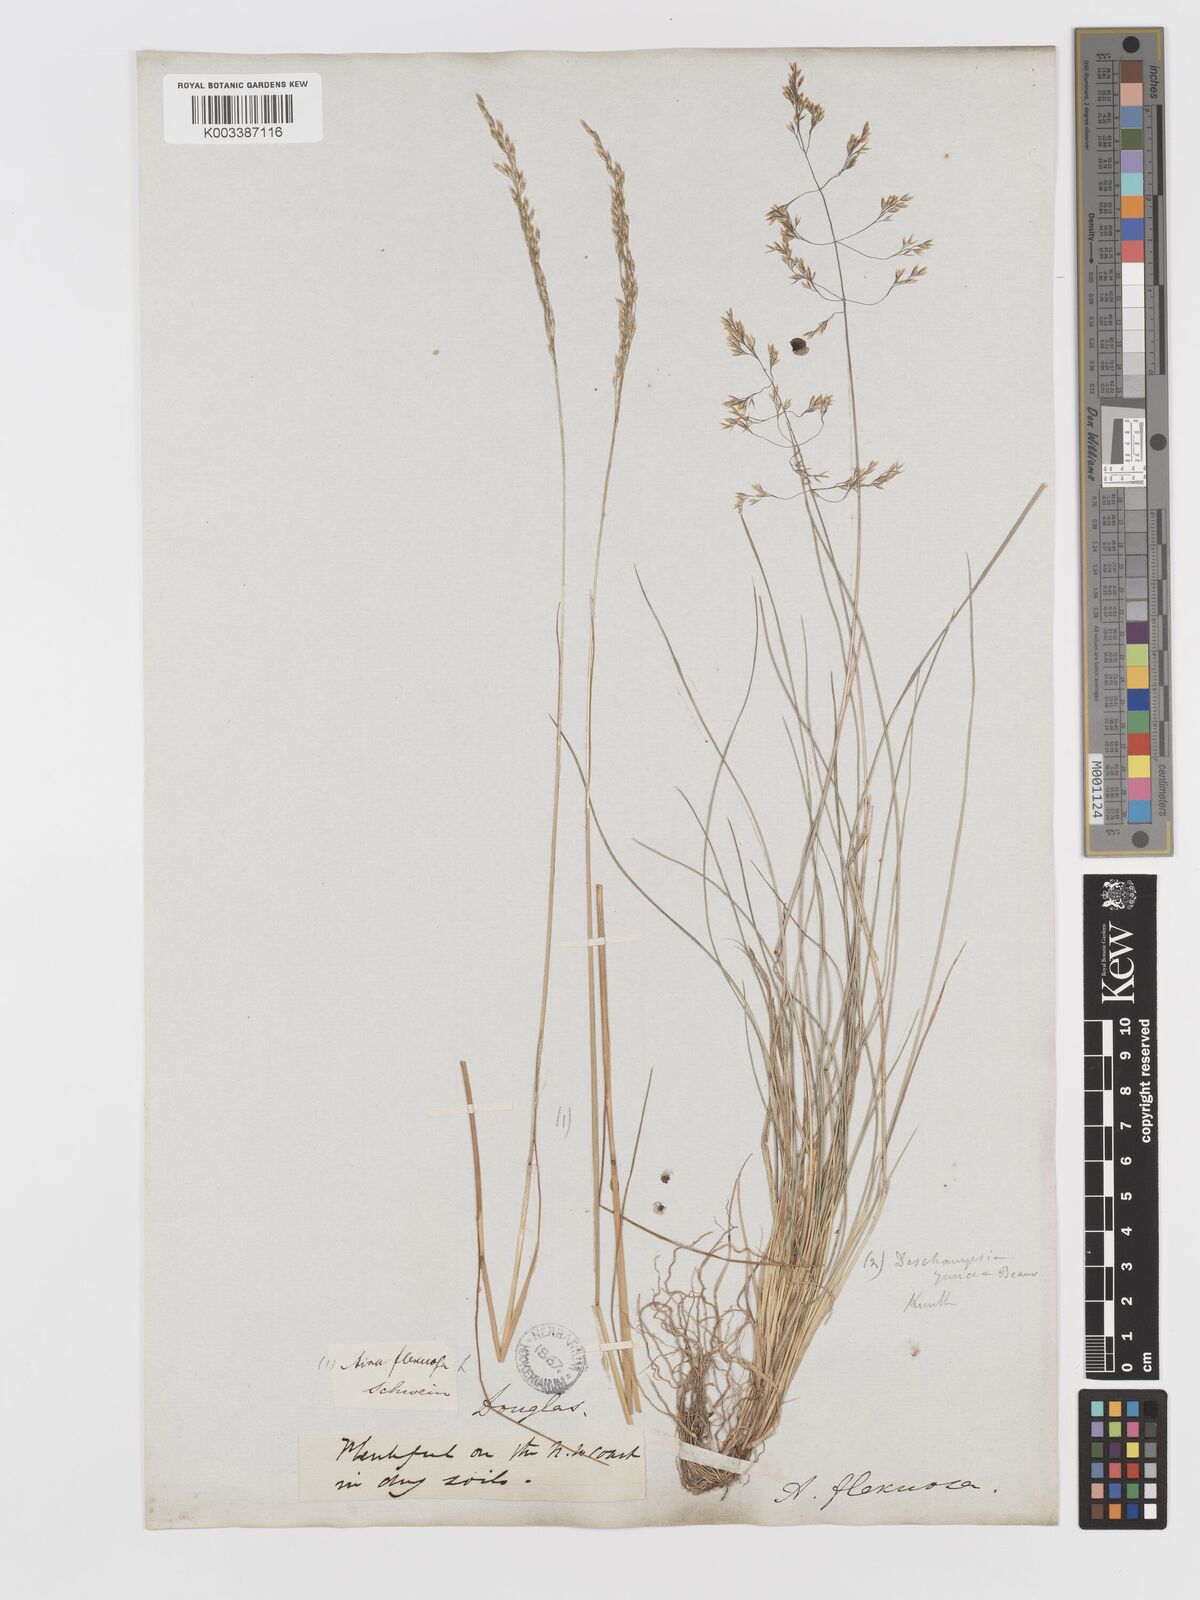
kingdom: Plantae
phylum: Tracheophyta
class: Liliopsida
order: Poales
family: Poaceae
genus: Avenella
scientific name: Avenella flexuosa
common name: Wavy hairgrass
